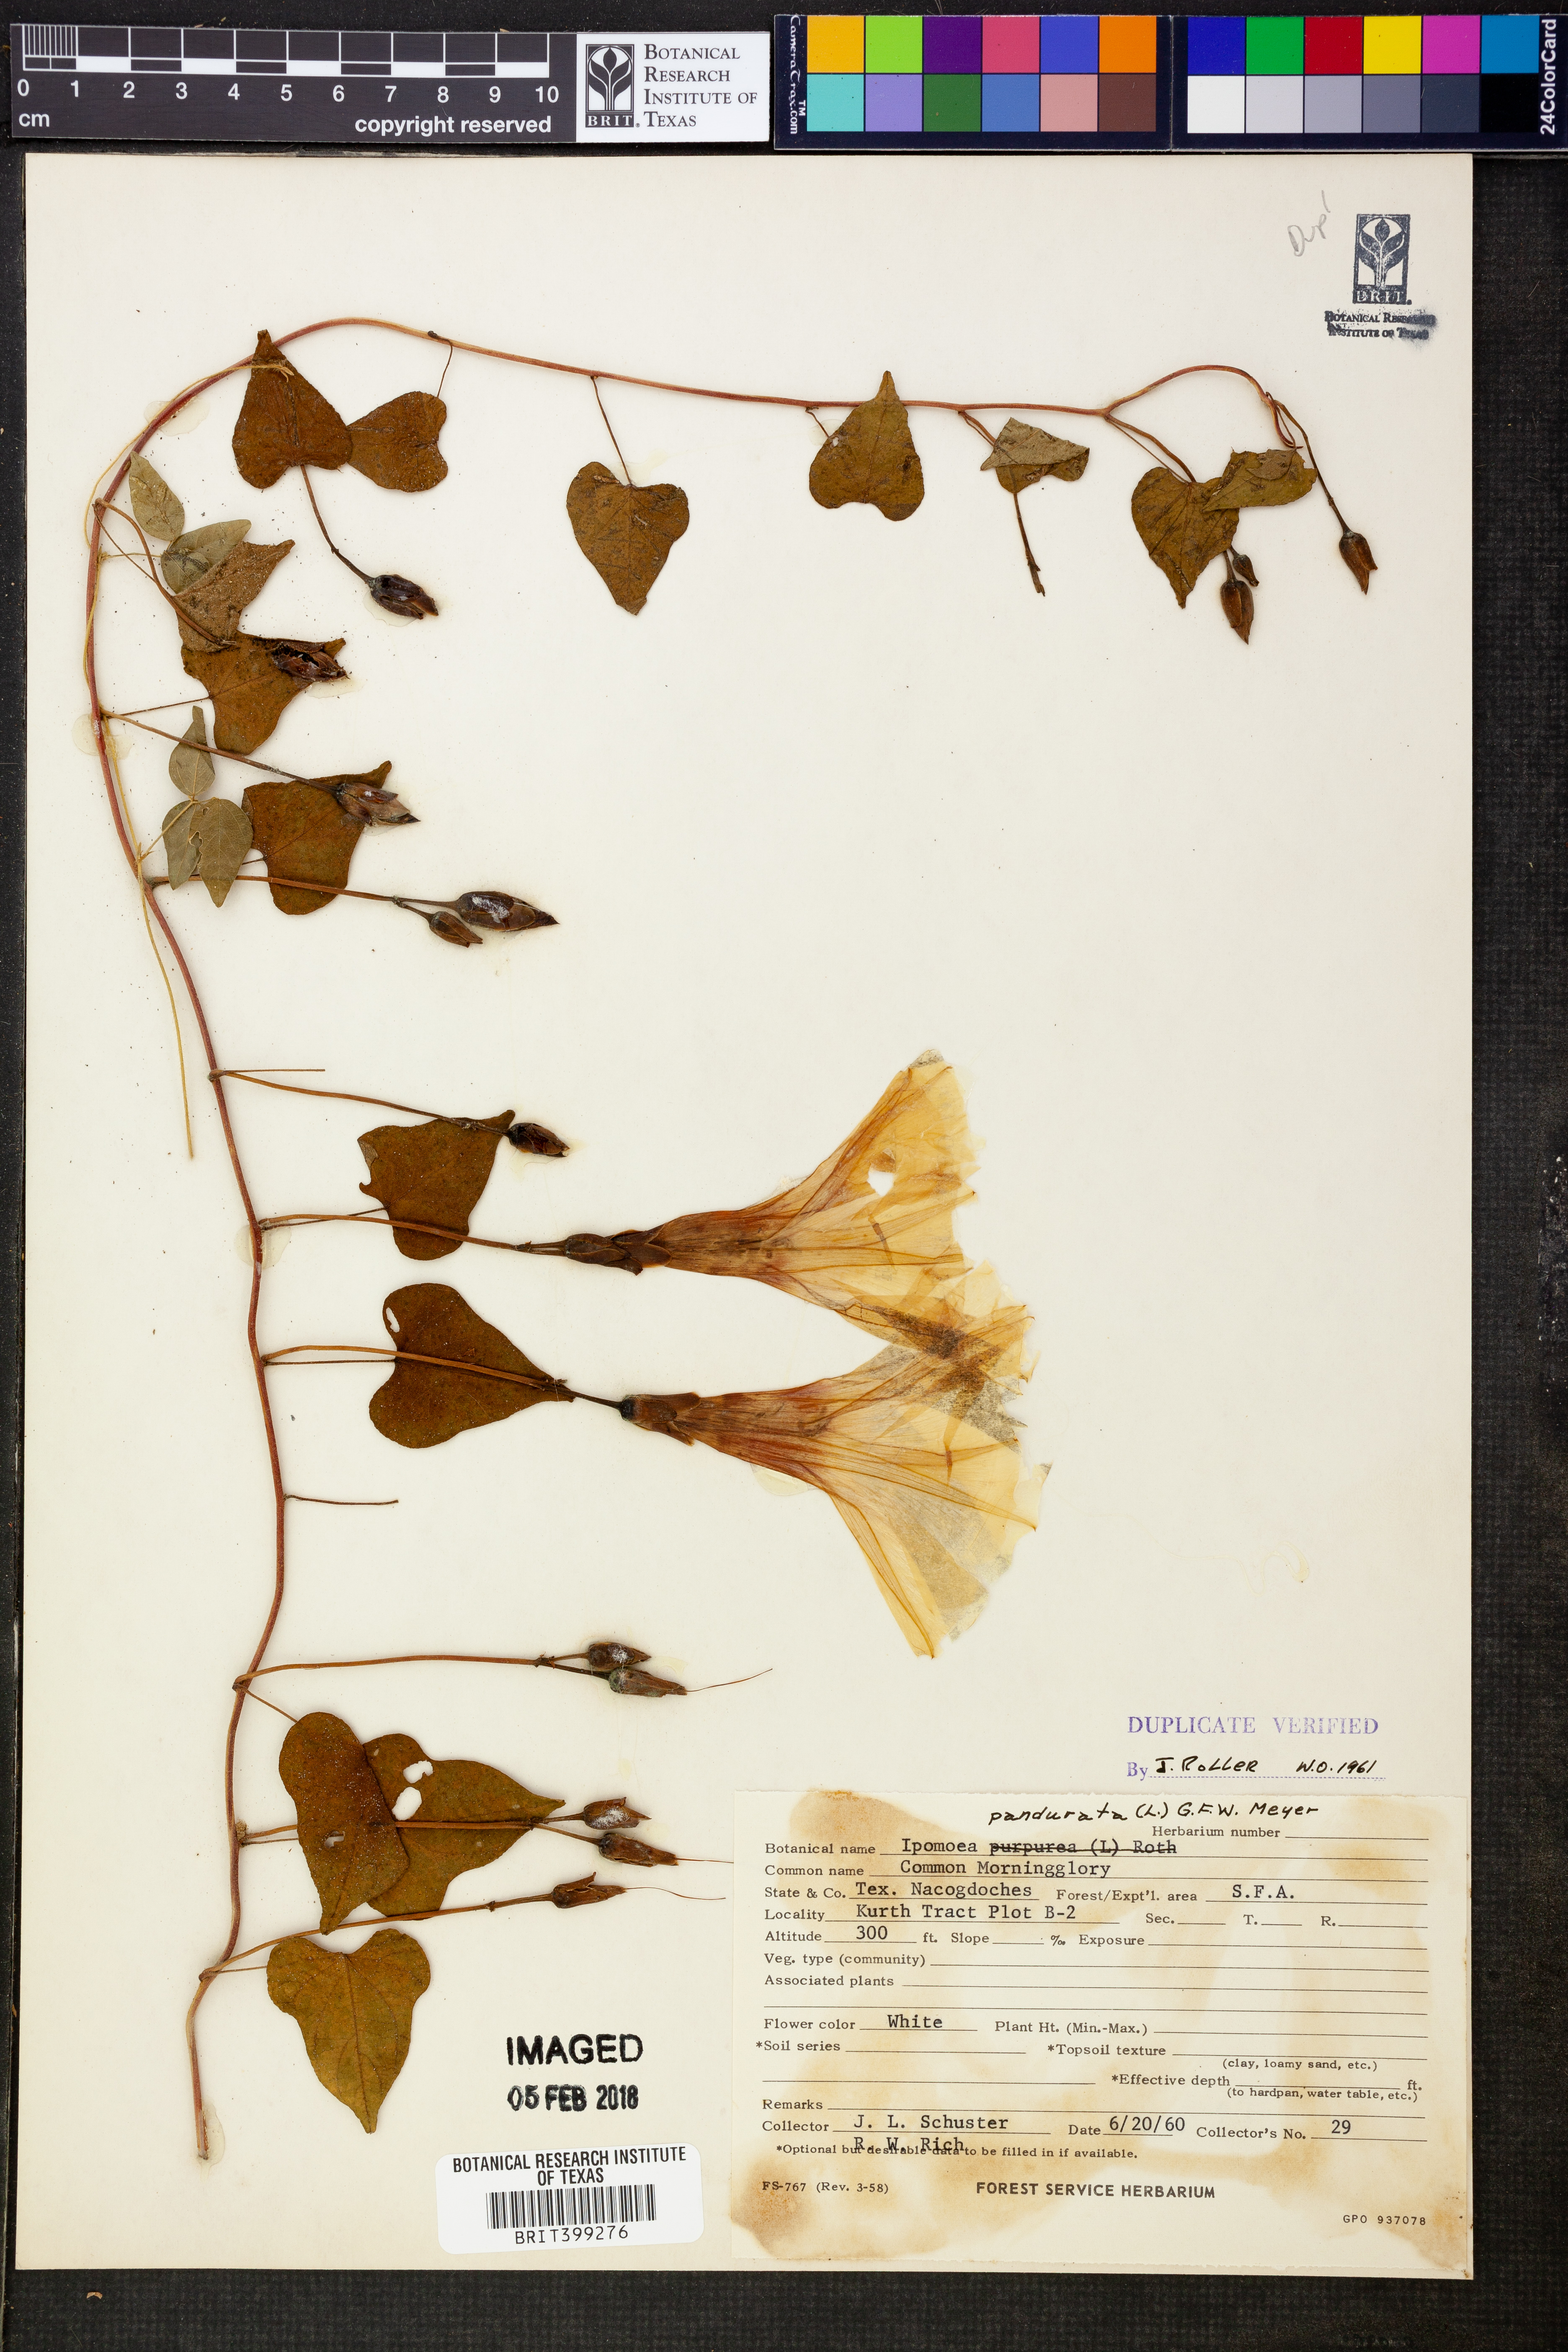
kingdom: Plantae
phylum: Tracheophyta
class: Magnoliopsida
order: Solanales
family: Convolvulaceae
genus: Ipomoea
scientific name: Ipomoea pandurata
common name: Man-of-the-earth
